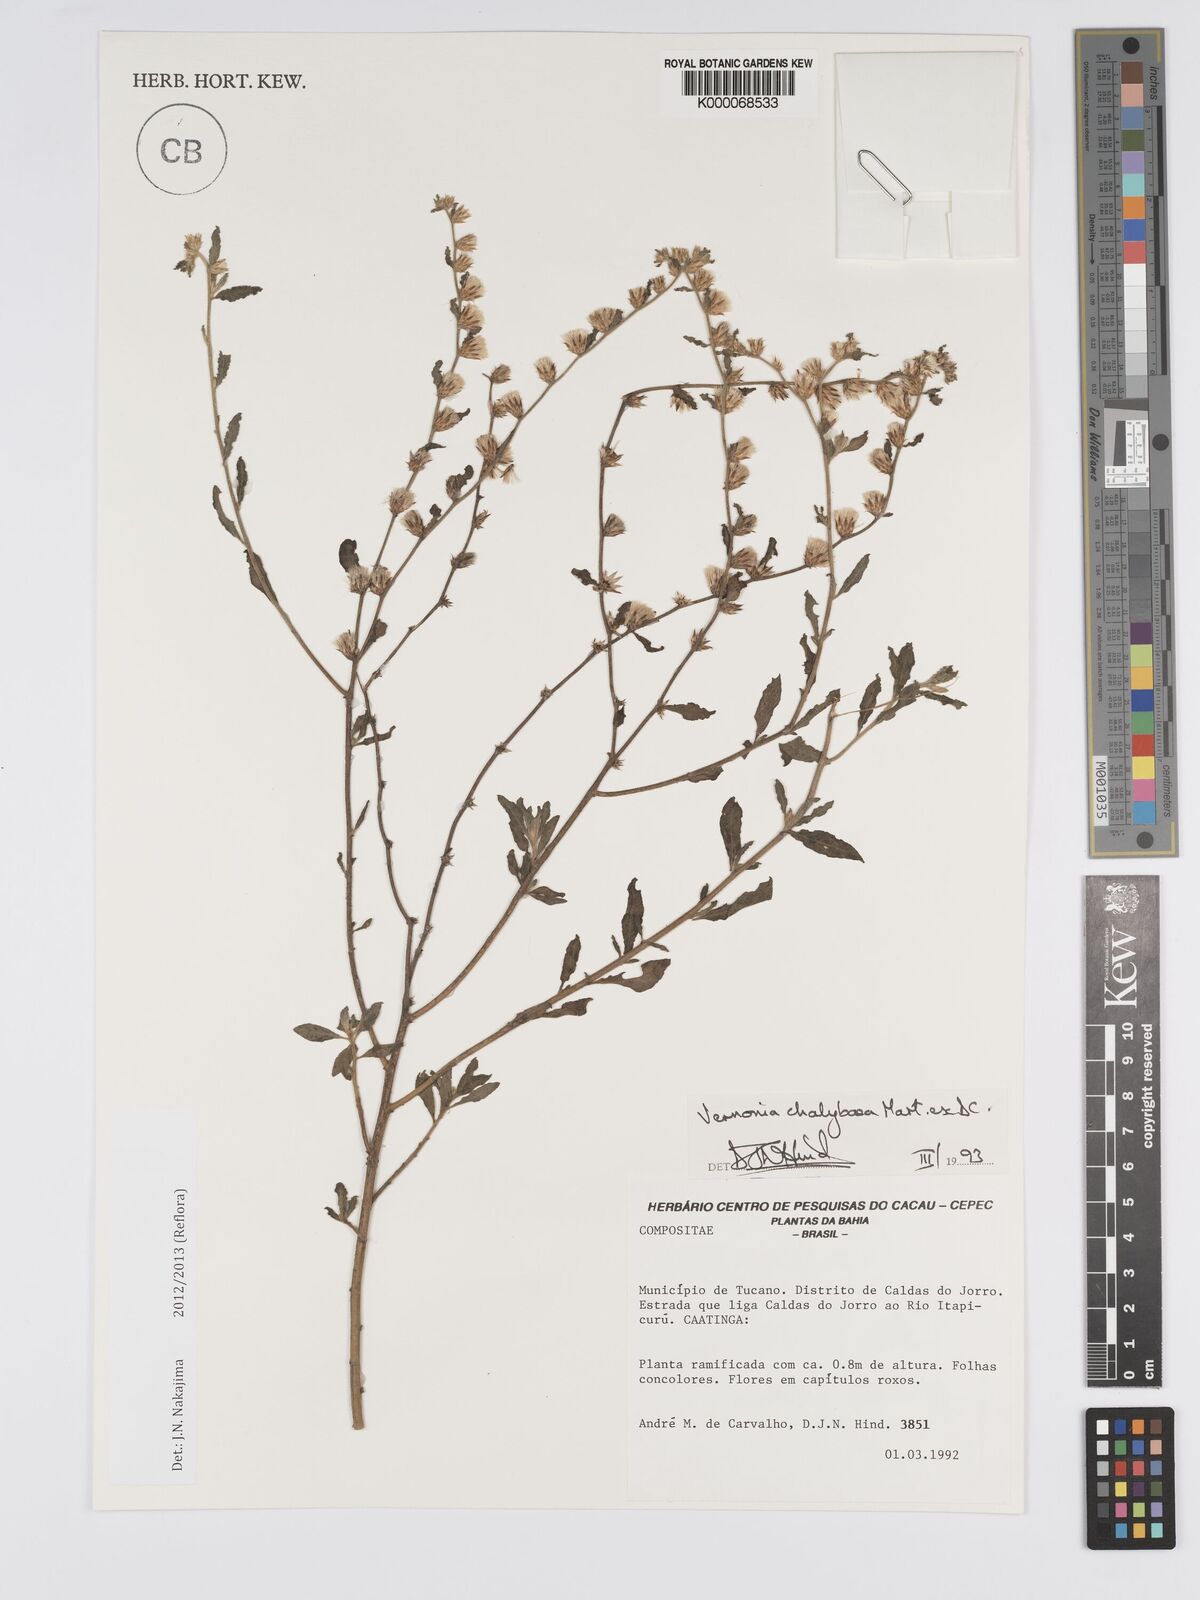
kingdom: Plantae
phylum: Tracheophyta
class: Magnoliopsida
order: Asterales
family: Asteraceae
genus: Lepidaploa
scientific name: Lepidaploa chalybaea
